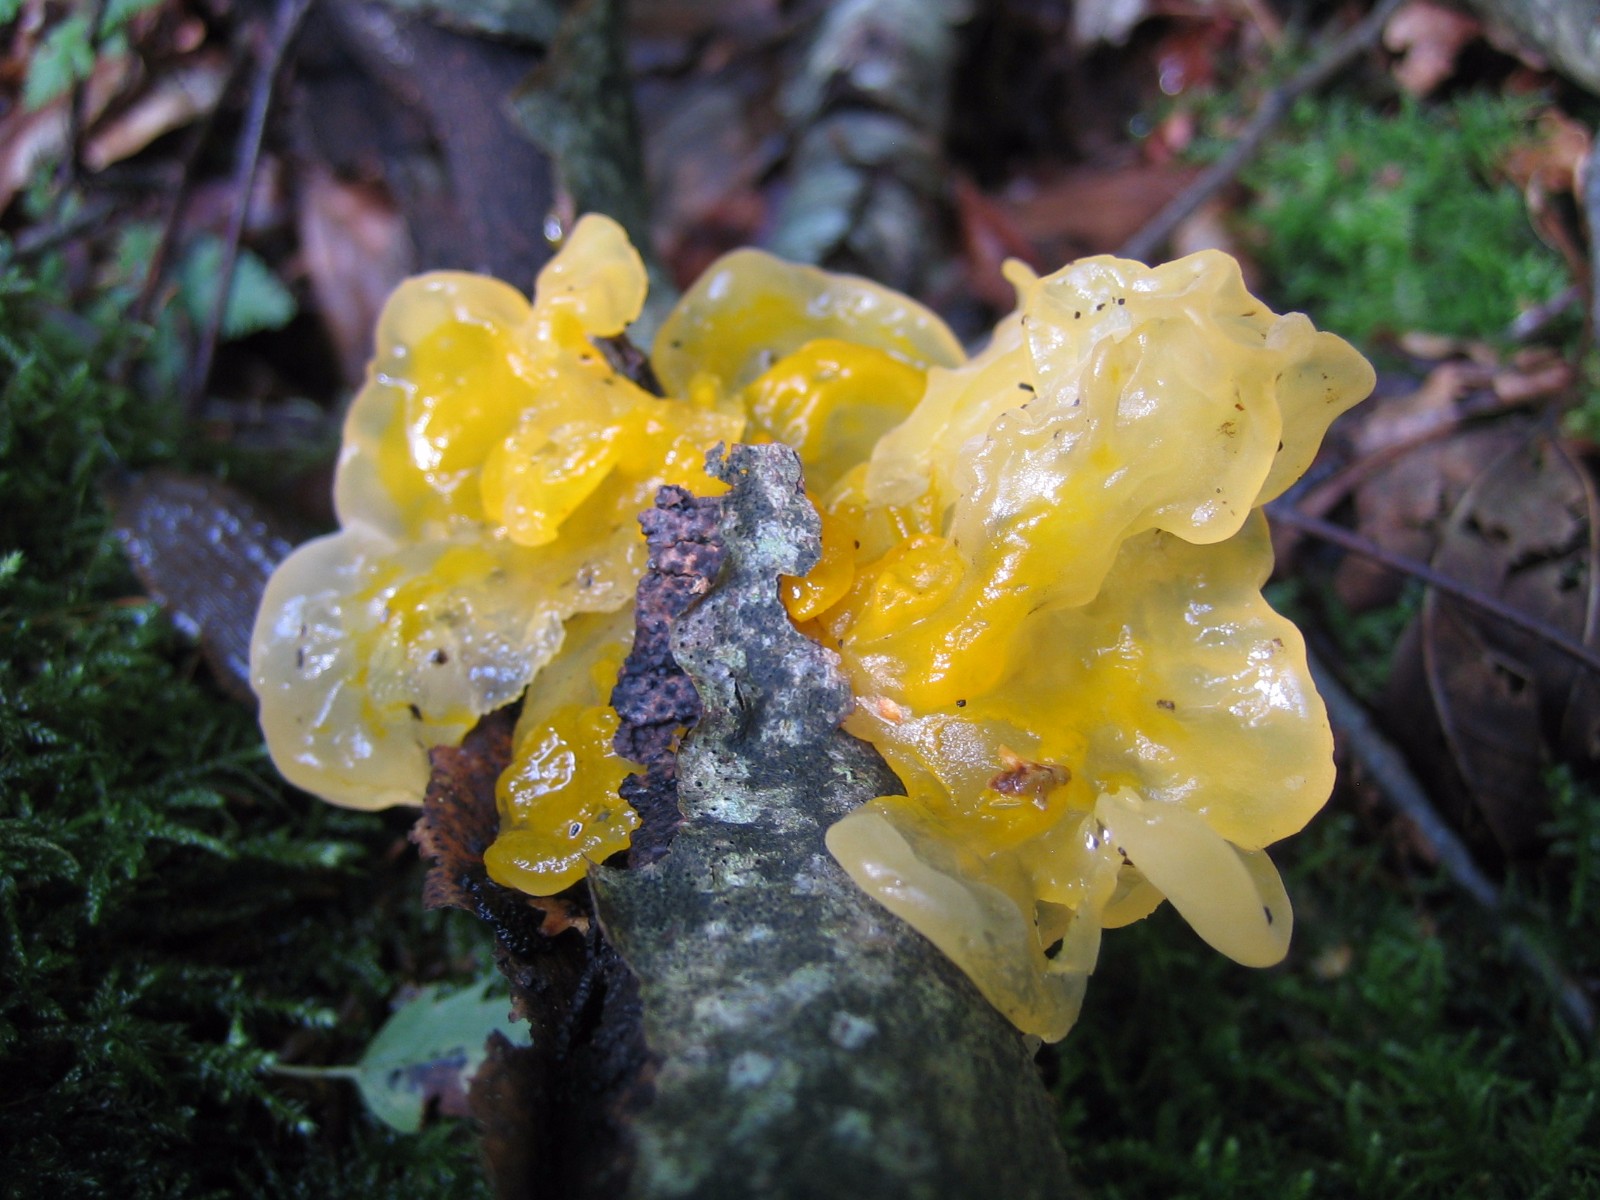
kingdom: Fungi
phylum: Basidiomycota
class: Tremellomycetes
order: Tremellales
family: Tremellaceae
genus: Tremella
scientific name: Tremella mesenterica
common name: gul bævresvamp
